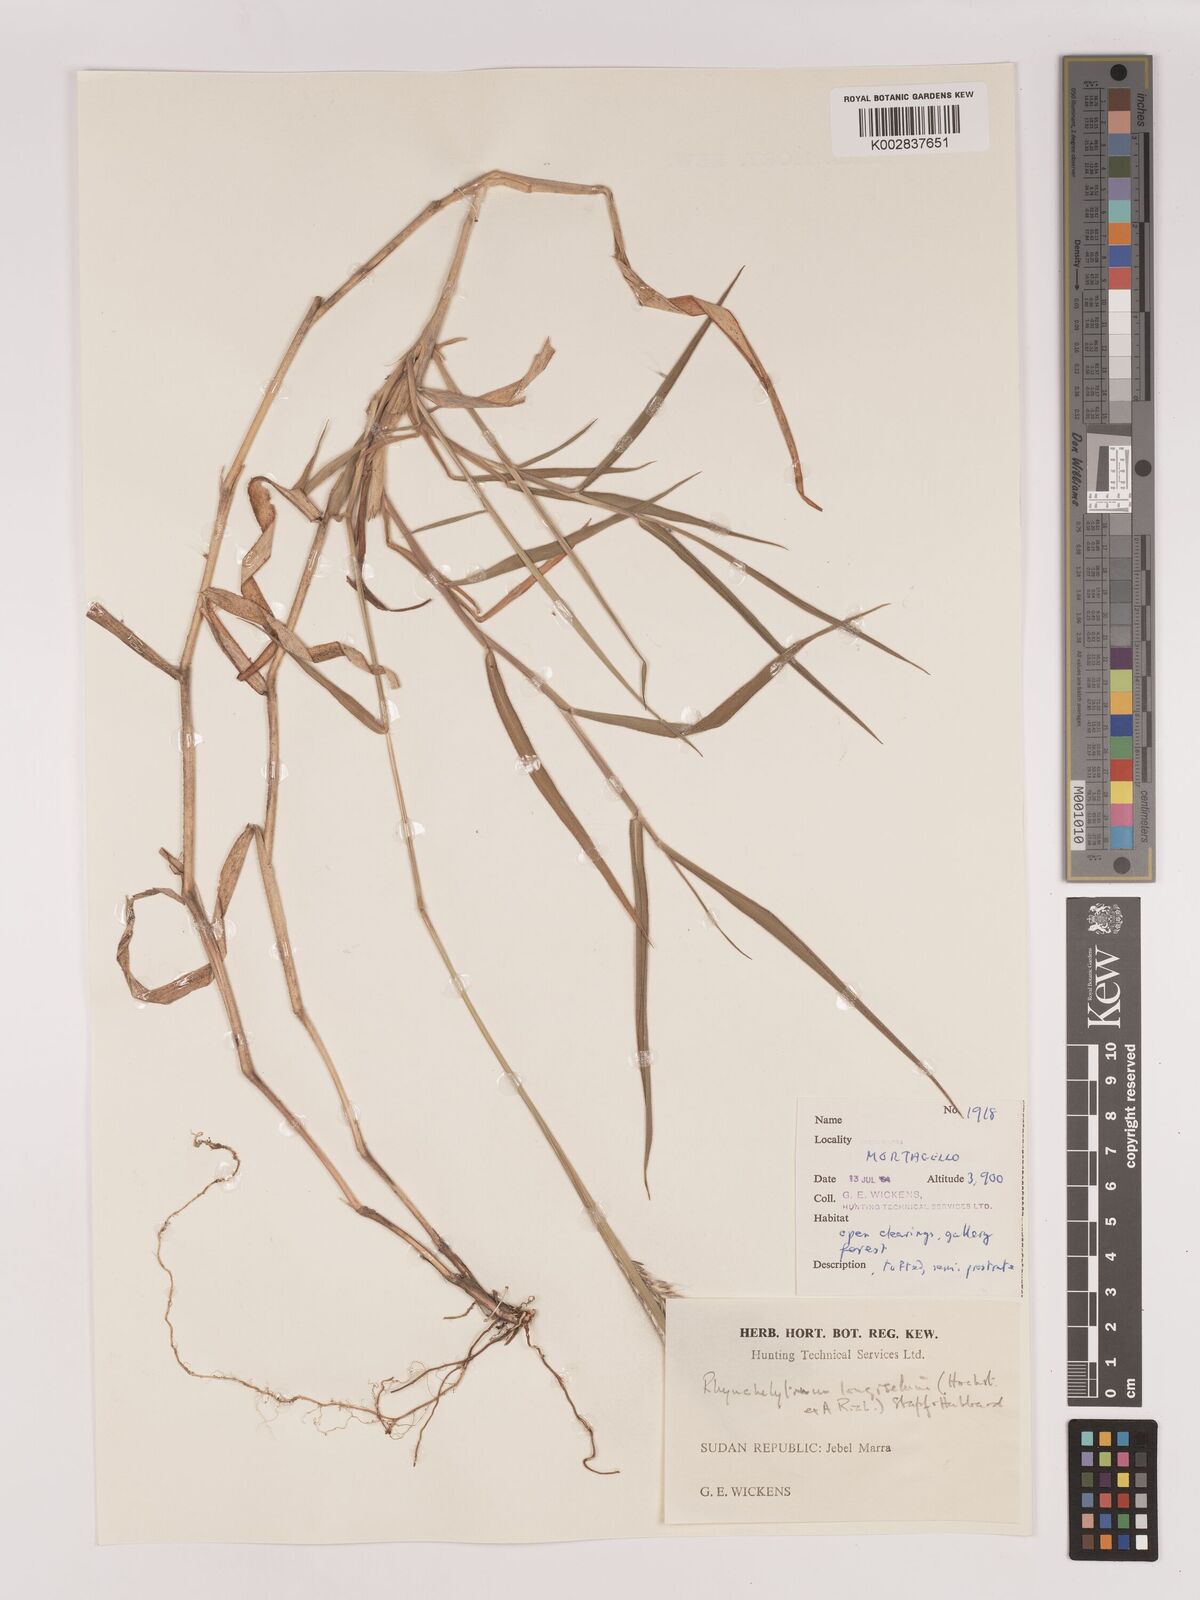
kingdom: Plantae
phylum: Tracheophyta
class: Liliopsida
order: Poales
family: Poaceae
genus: Melinis
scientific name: Melinis longiseta
